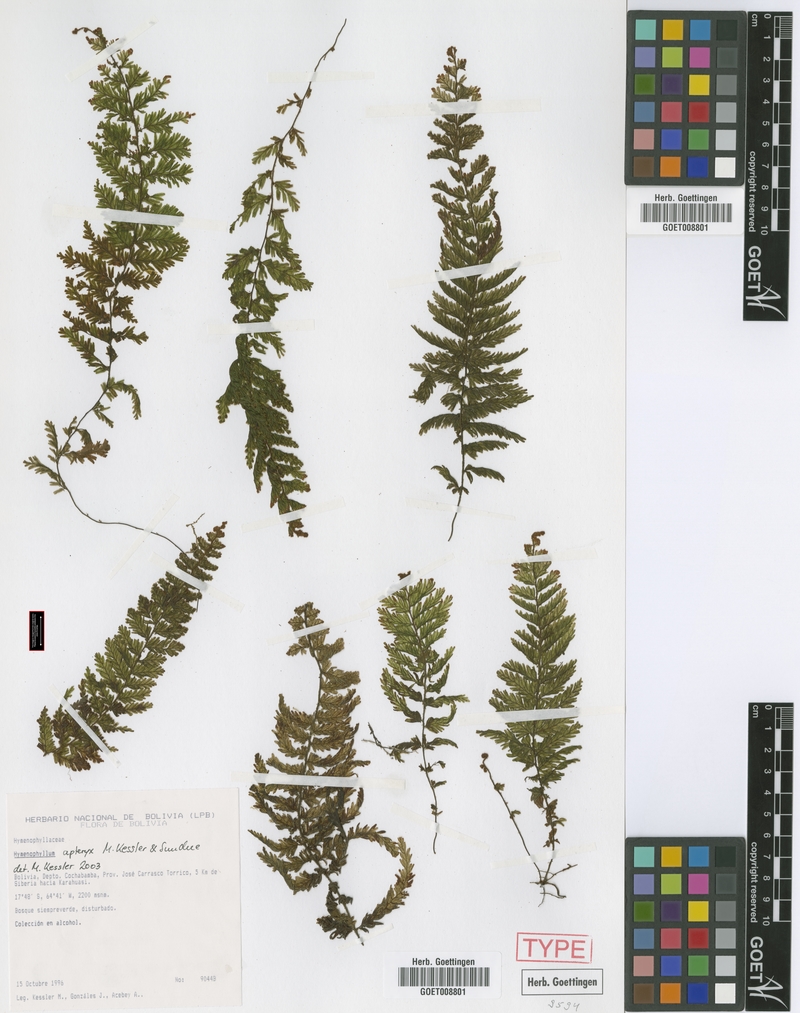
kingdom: Plantae
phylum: Tracheophyta
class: Polypodiopsida
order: Hymenophyllales
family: Hymenophyllaceae
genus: Hymenophyllum
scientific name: Hymenophyllum apteryx
